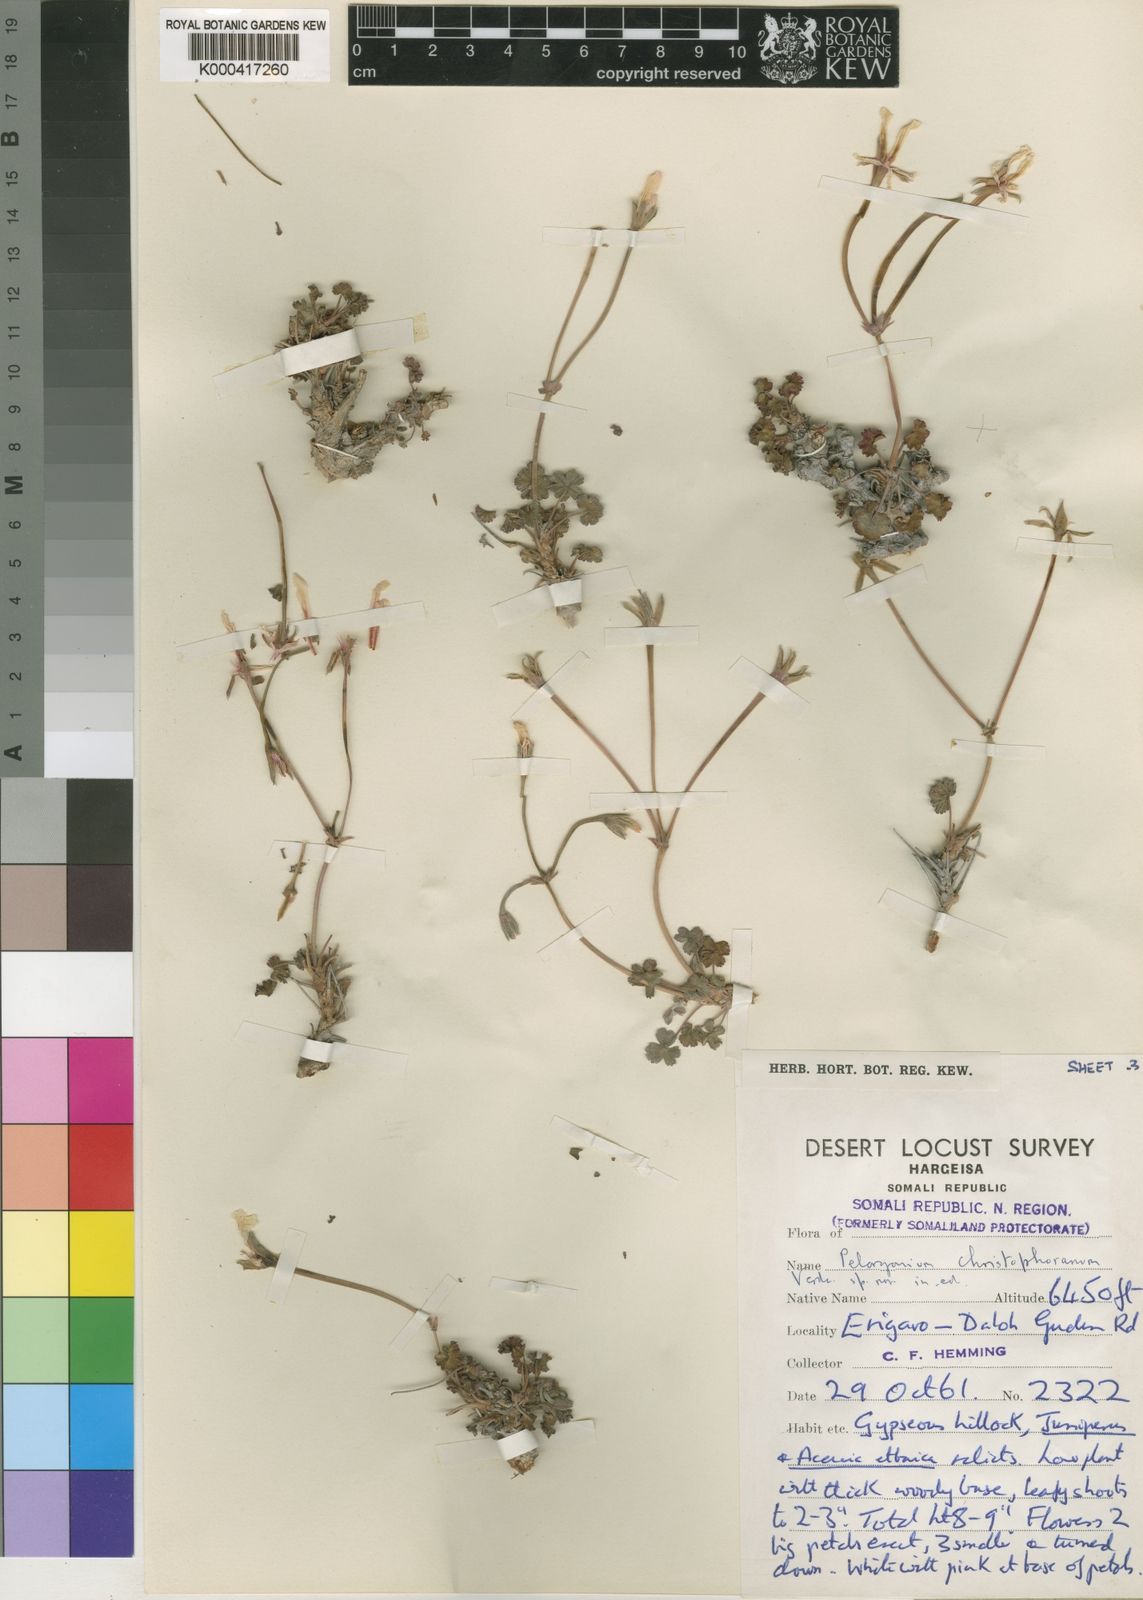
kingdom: Plantae
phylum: Tracheophyta
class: Magnoliopsida
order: Geraniales
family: Geraniaceae
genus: Pelargonium
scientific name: Pelargonium christophoranum
